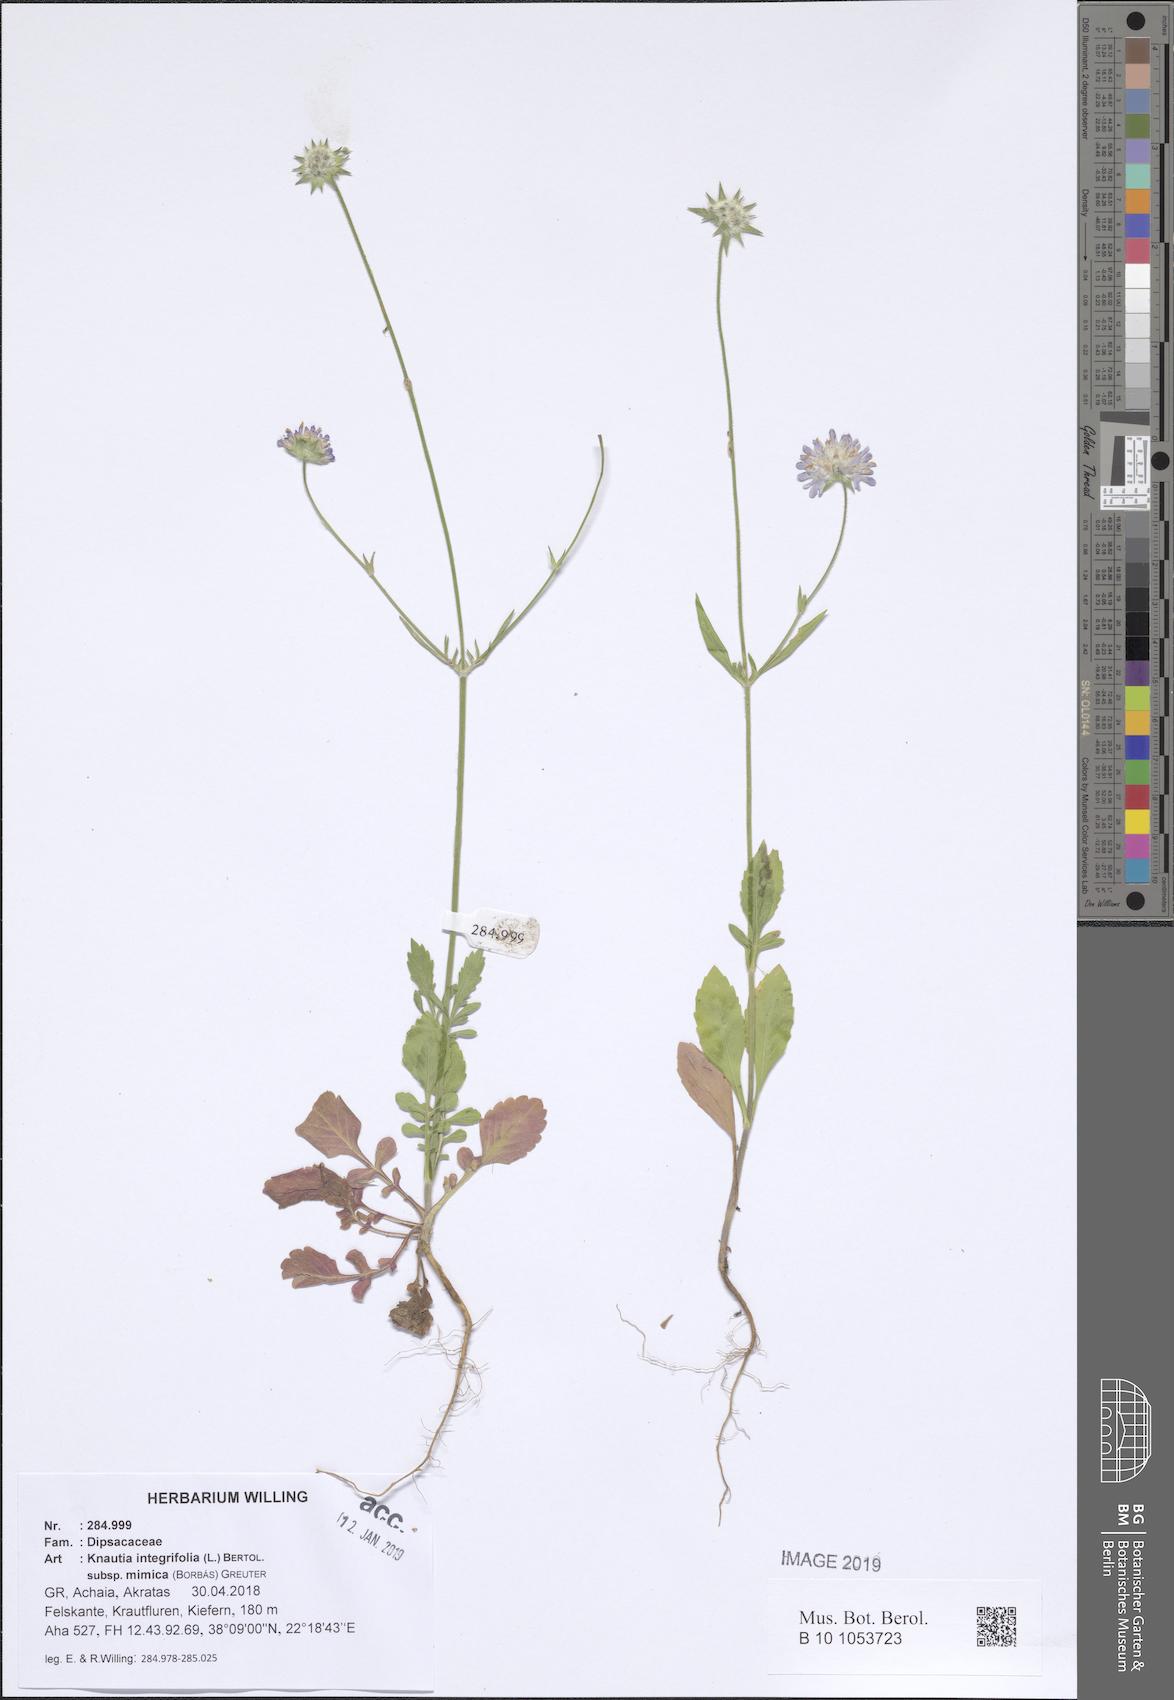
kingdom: Plantae
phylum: Tracheophyta
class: Magnoliopsida
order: Dipsacales
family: Caprifoliaceae
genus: Knautia
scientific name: Knautia integrifolia
